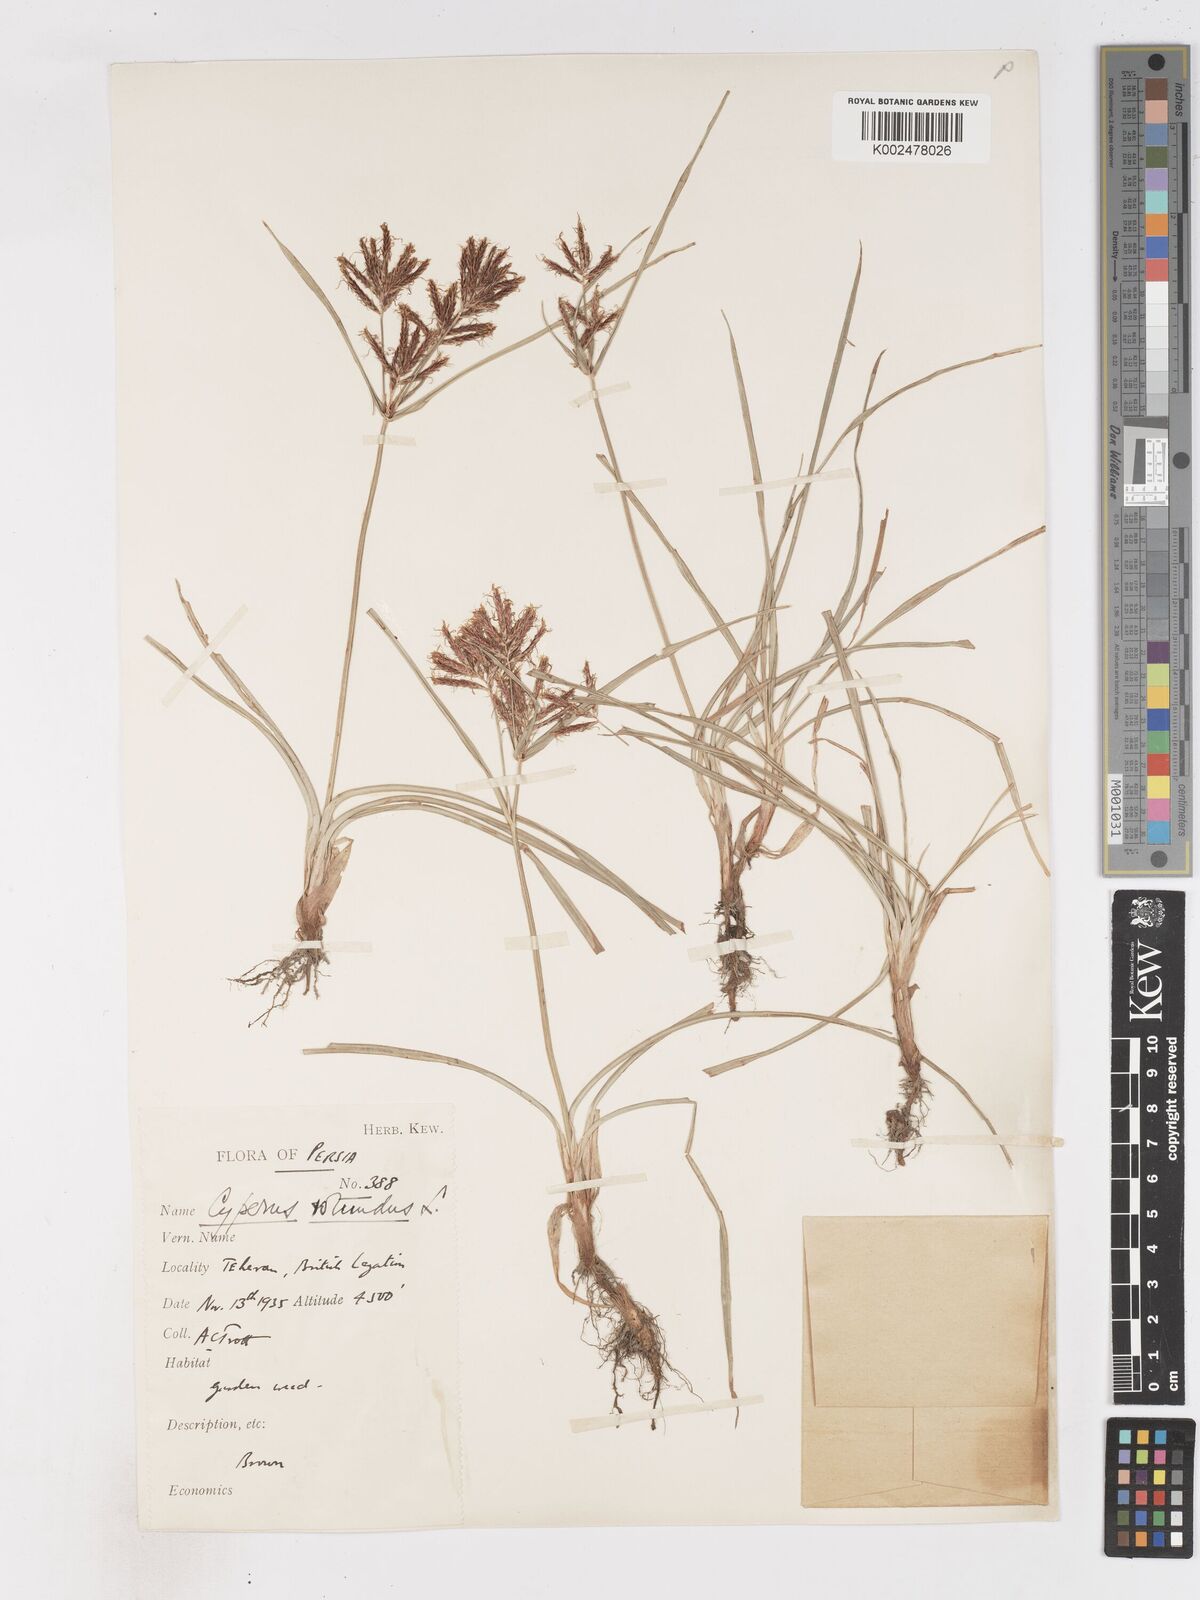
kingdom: Plantae
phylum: Tracheophyta
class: Liliopsida
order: Poales
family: Cyperaceae
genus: Cyperus
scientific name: Cyperus rotundus
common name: Nutgrass
